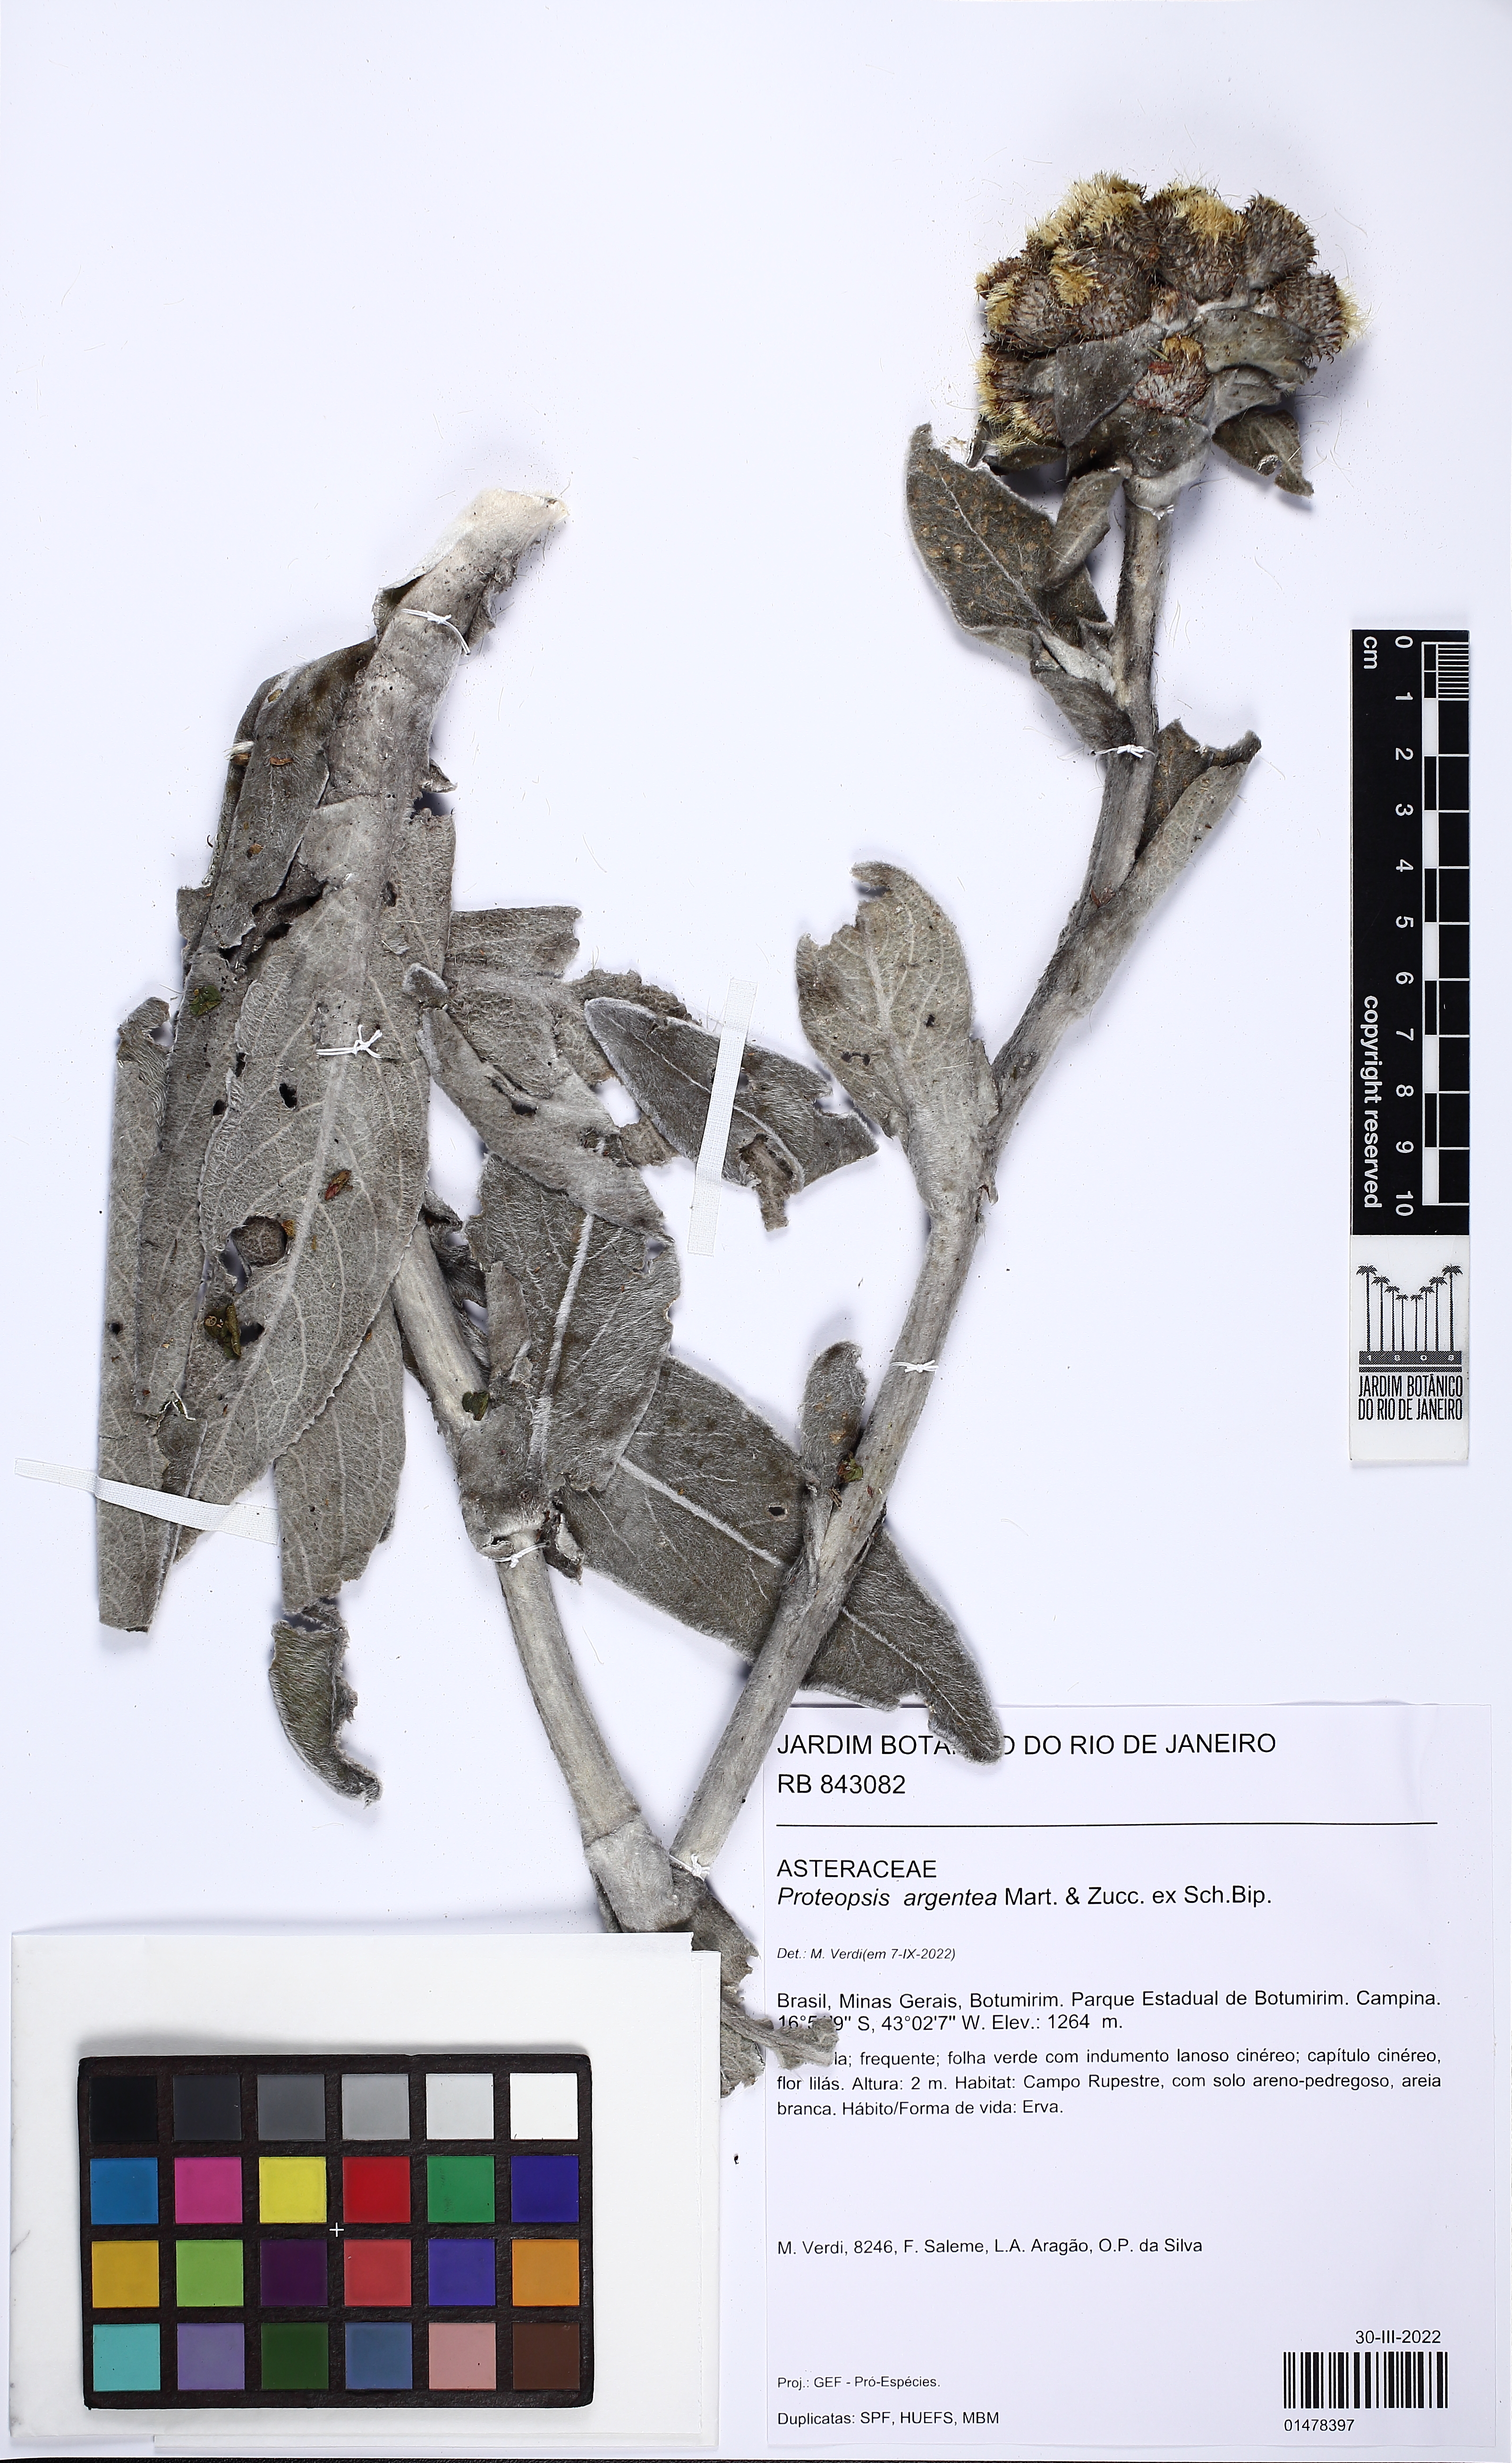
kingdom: Plantae
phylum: Tracheophyta
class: Magnoliopsida
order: Asterales
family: Asteraceae
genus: Proteopsis
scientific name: Proteopsis argentea
